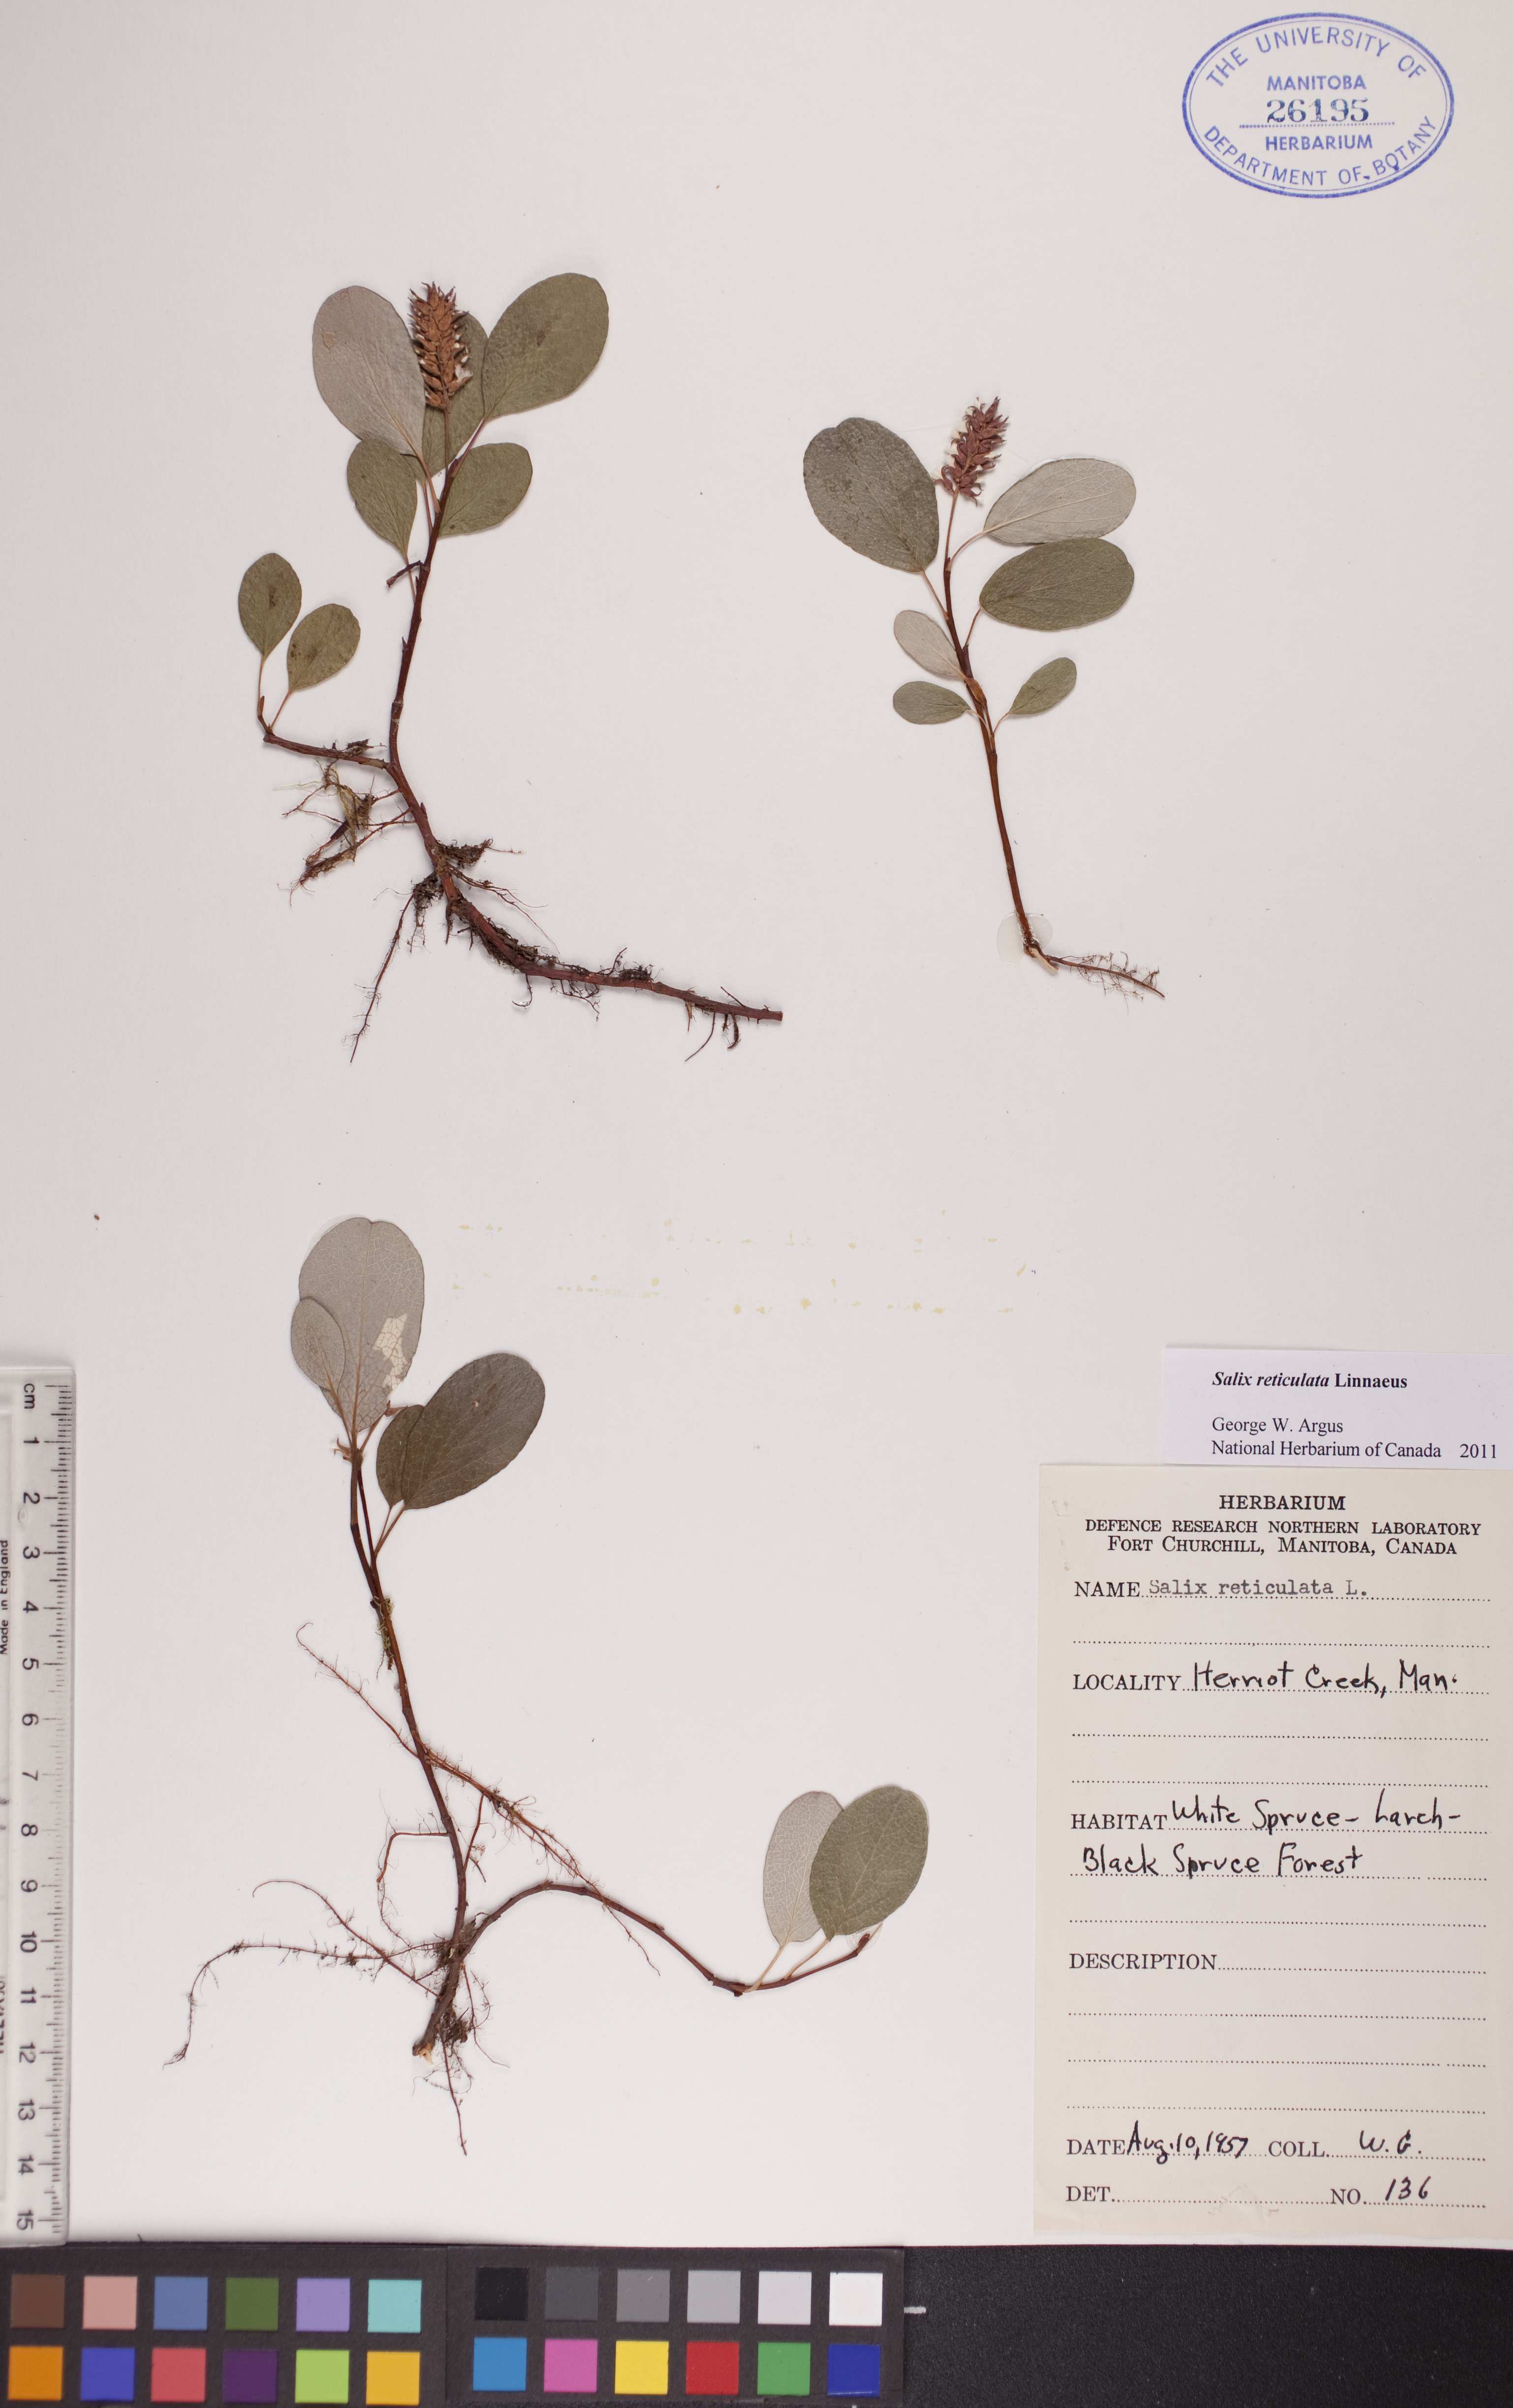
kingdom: Plantae
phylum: Tracheophyta
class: Magnoliopsida
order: Malpighiales
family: Salicaceae
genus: Salix
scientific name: Salix reticulata
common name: Net-leaved willow
